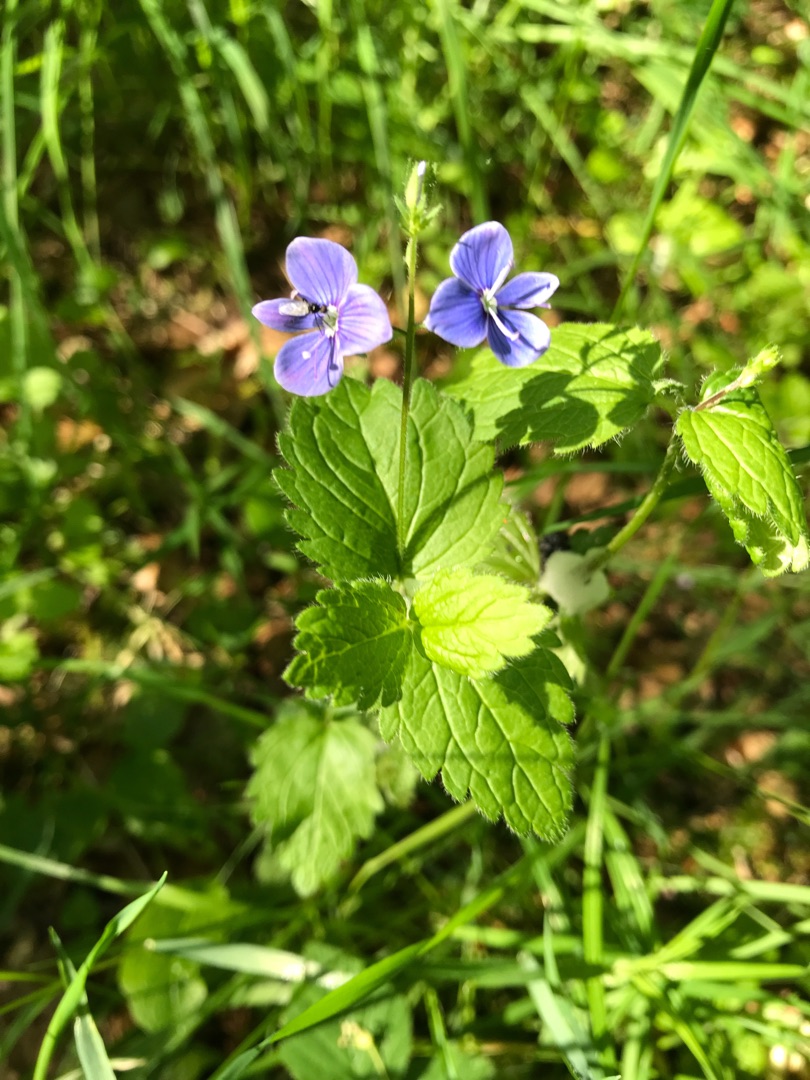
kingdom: Plantae
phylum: Tracheophyta
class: Magnoliopsida
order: Lamiales
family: Plantaginaceae
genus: Veronica
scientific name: Veronica chamaedrys
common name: Tveskægget ærenpris
